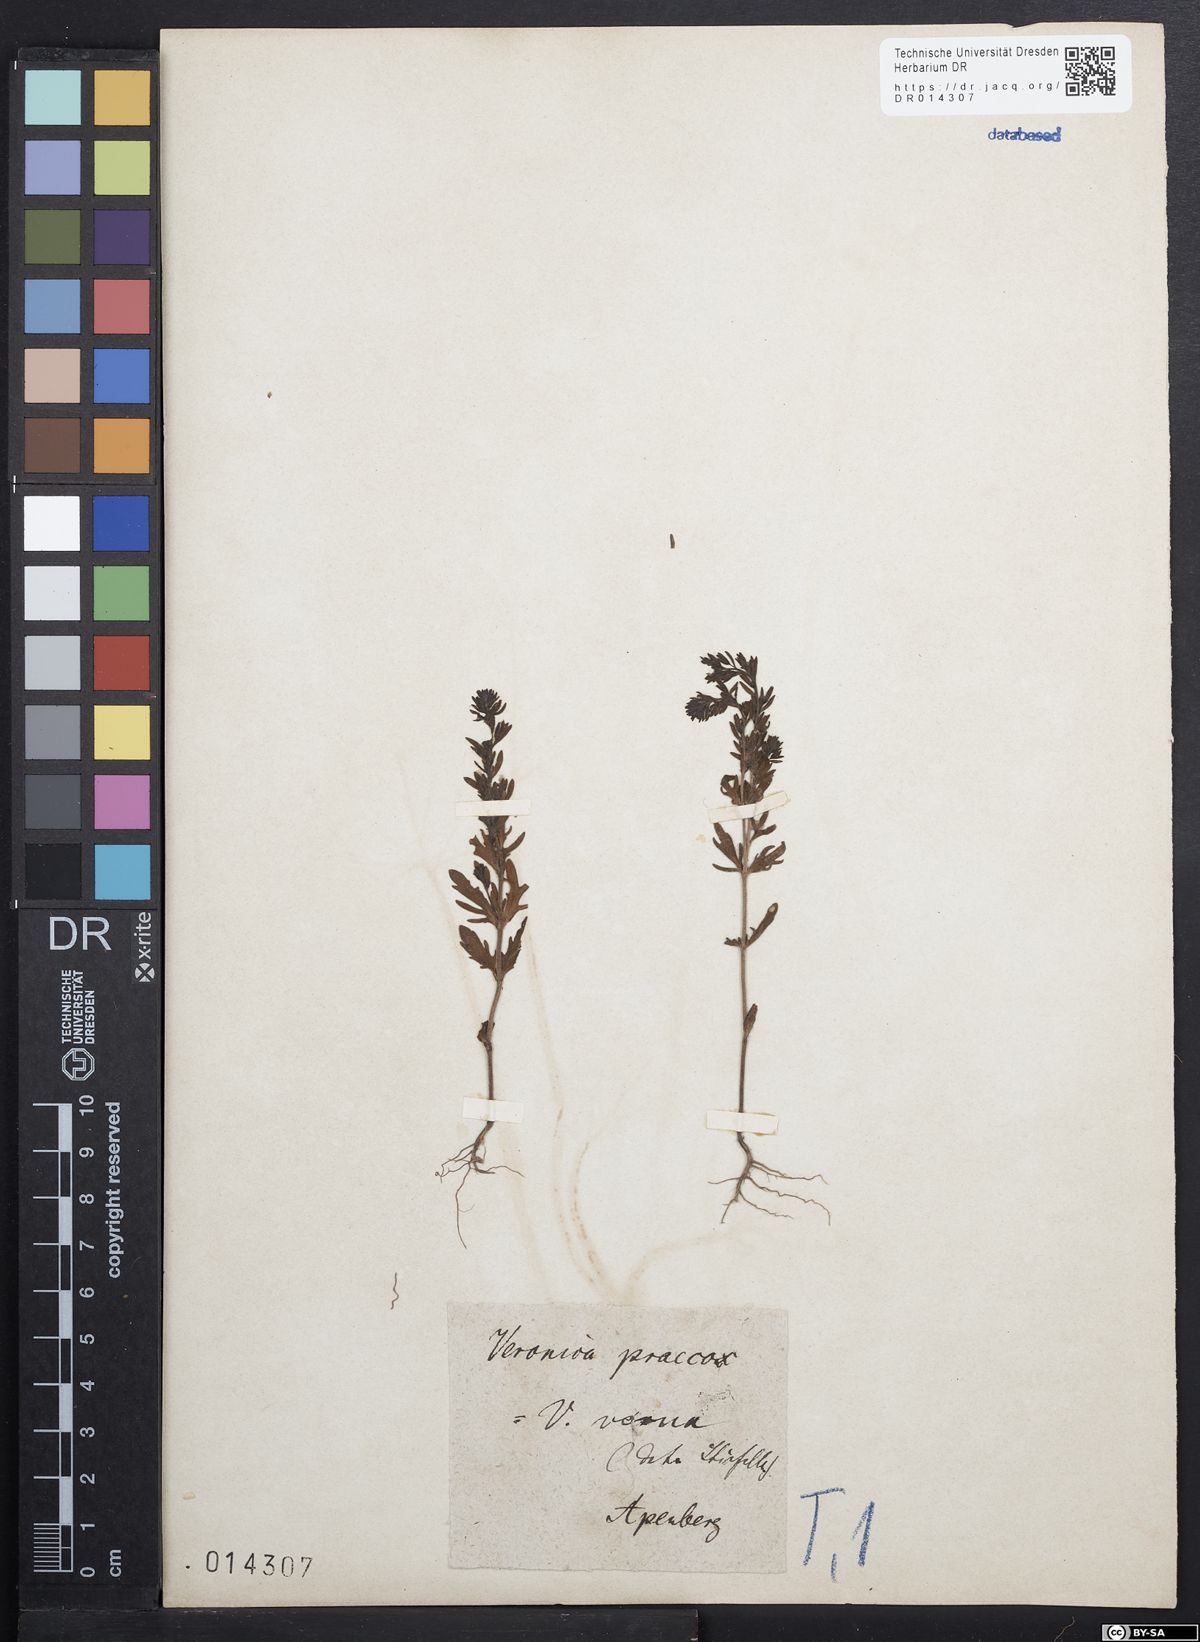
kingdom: Plantae
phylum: Tracheophyta
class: Magnoliopsida
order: Lamiales
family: Plantaginaceae
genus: Veronica
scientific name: Veronica verna
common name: Spring speedwell
